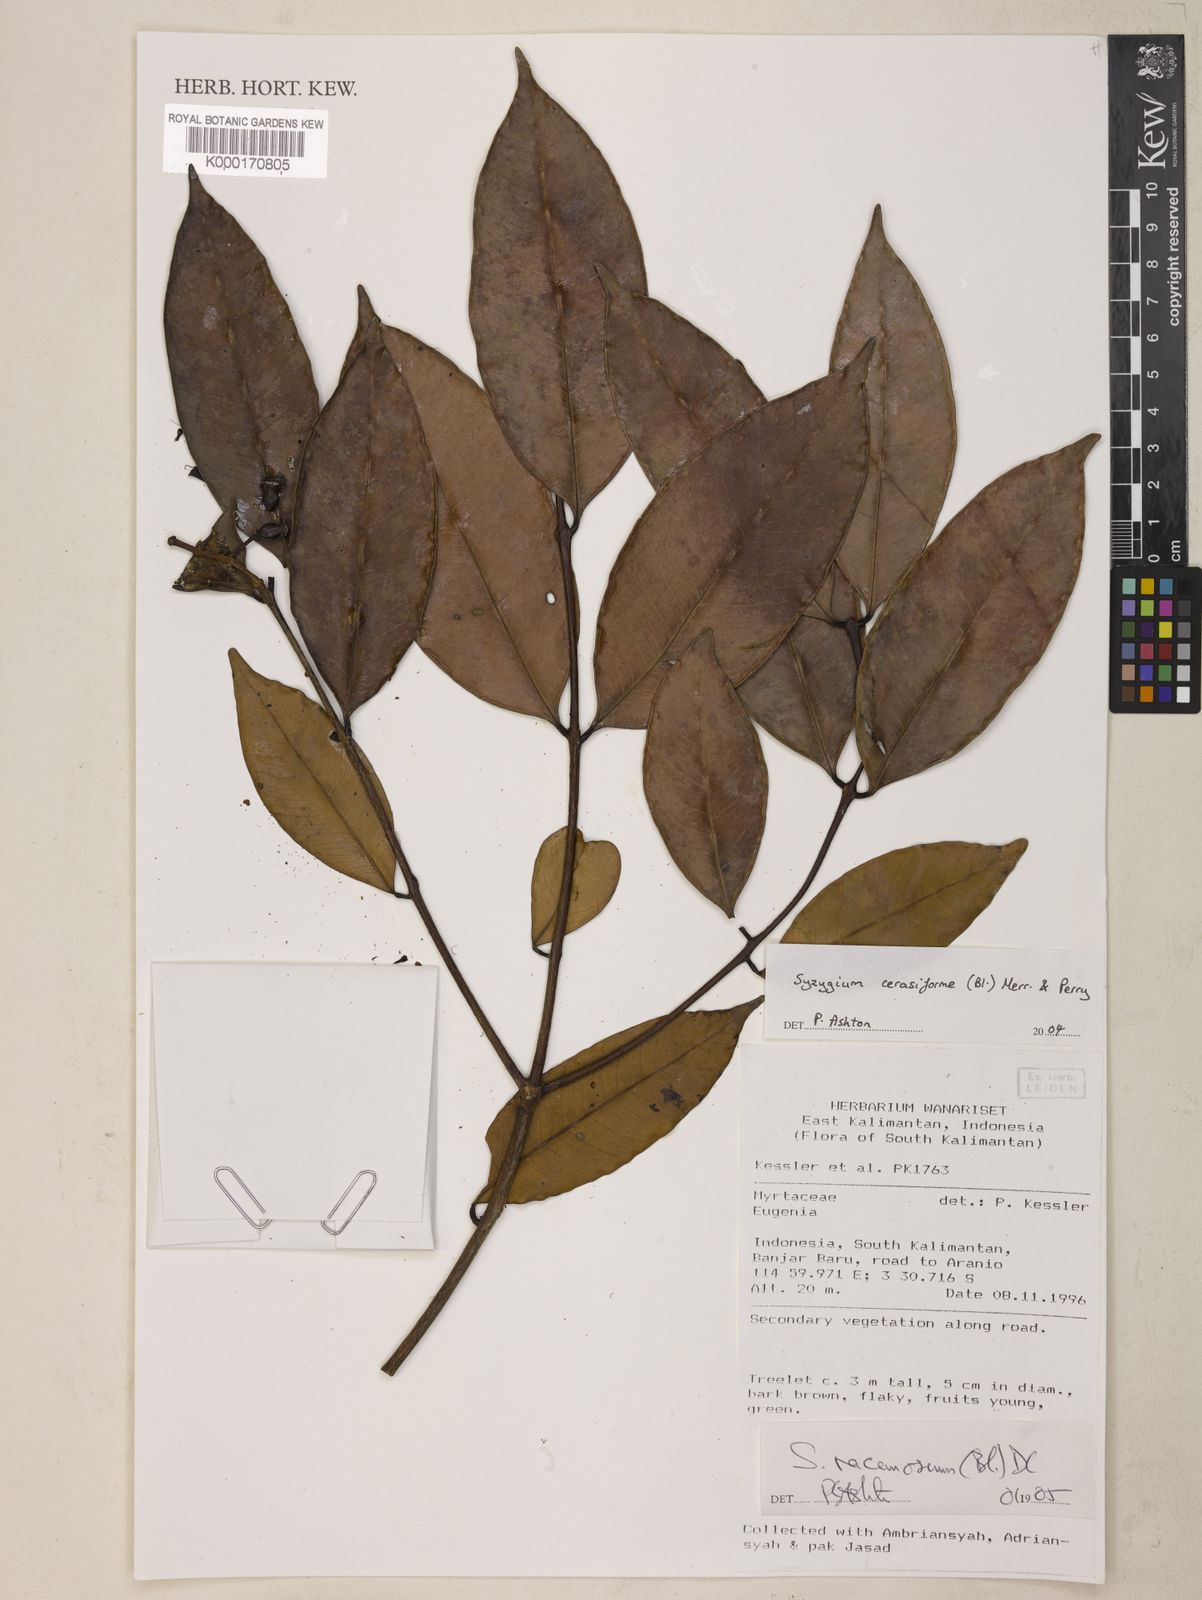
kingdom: Plantae
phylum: Tracheophyta
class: Magnoliopsida
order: Myrtales
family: Myrtaceae
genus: Syzygium
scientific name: Syzygium racemosum
